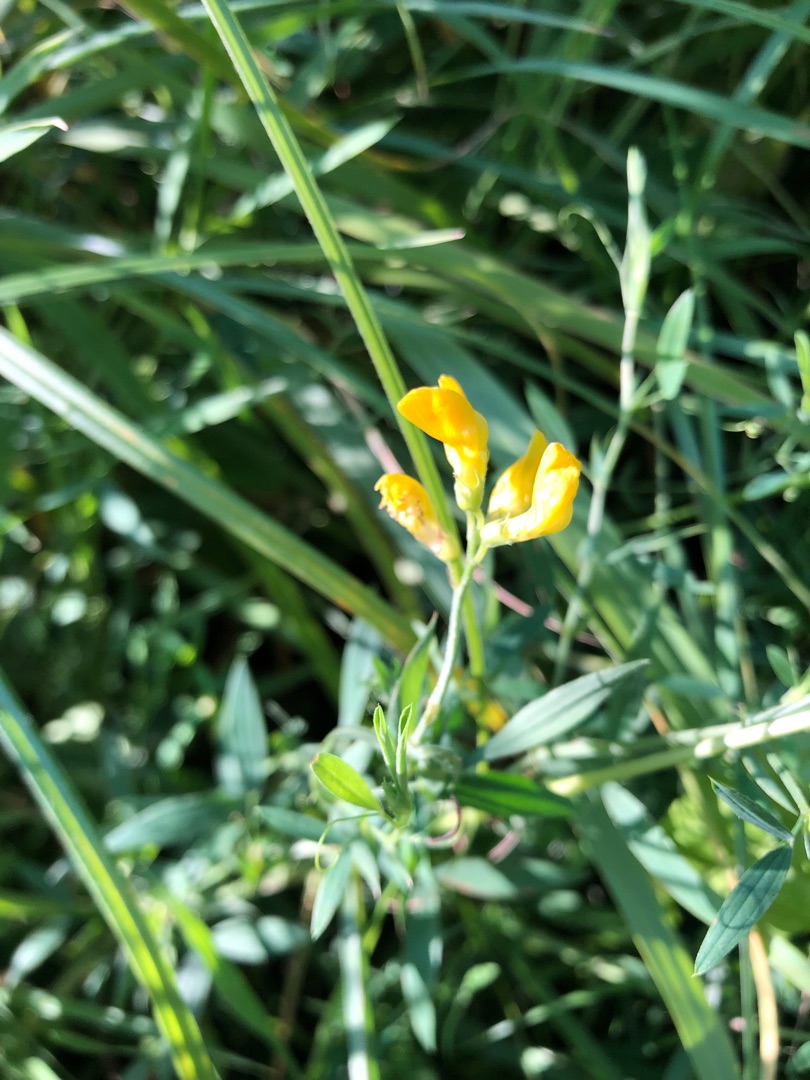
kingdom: Plantae
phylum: Tracheophyta
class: Magnoliopsida
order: Fabales
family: Fabaceae
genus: Lathyrus
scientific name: Lathyrus pratensis
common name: Gul fladbælg
